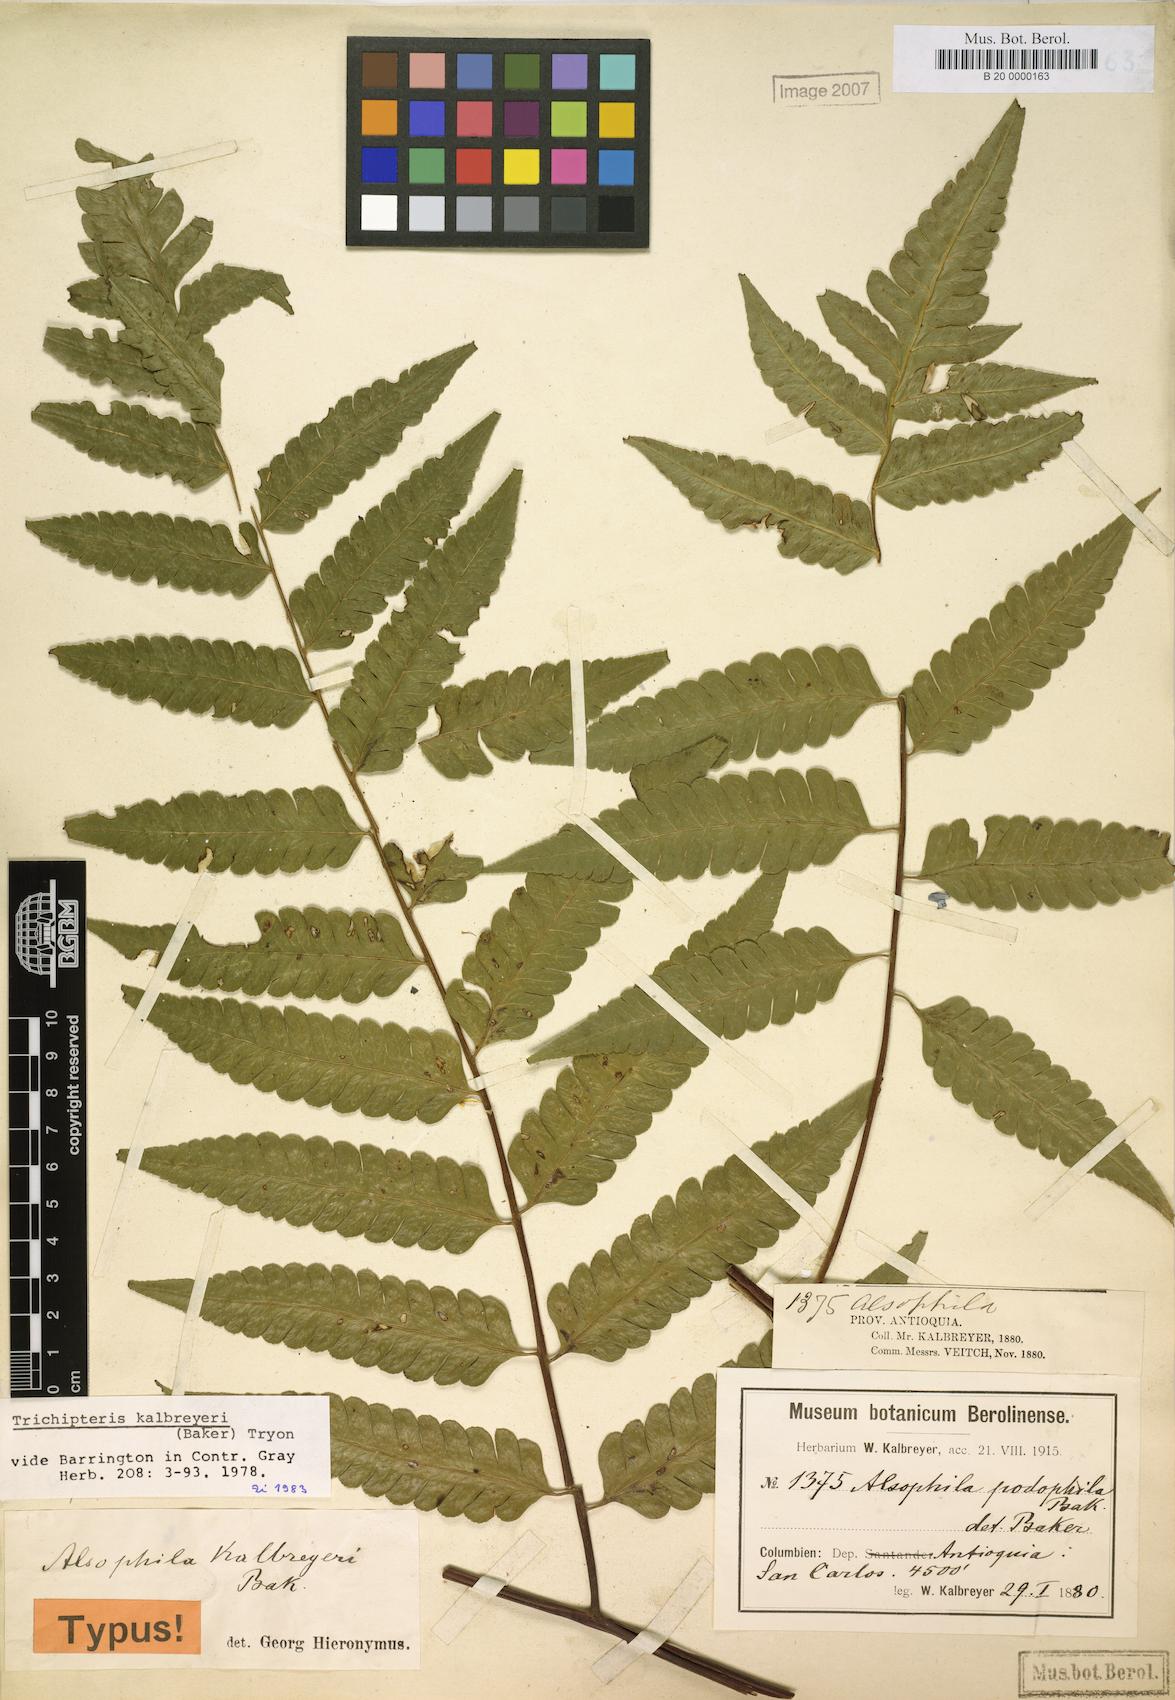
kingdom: Plantae
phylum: Tracheophyta
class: Polypodiopsida
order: Cyatheales
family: Cyatheaceae
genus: Cyathea
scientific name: Cyathea kalbreyeri
